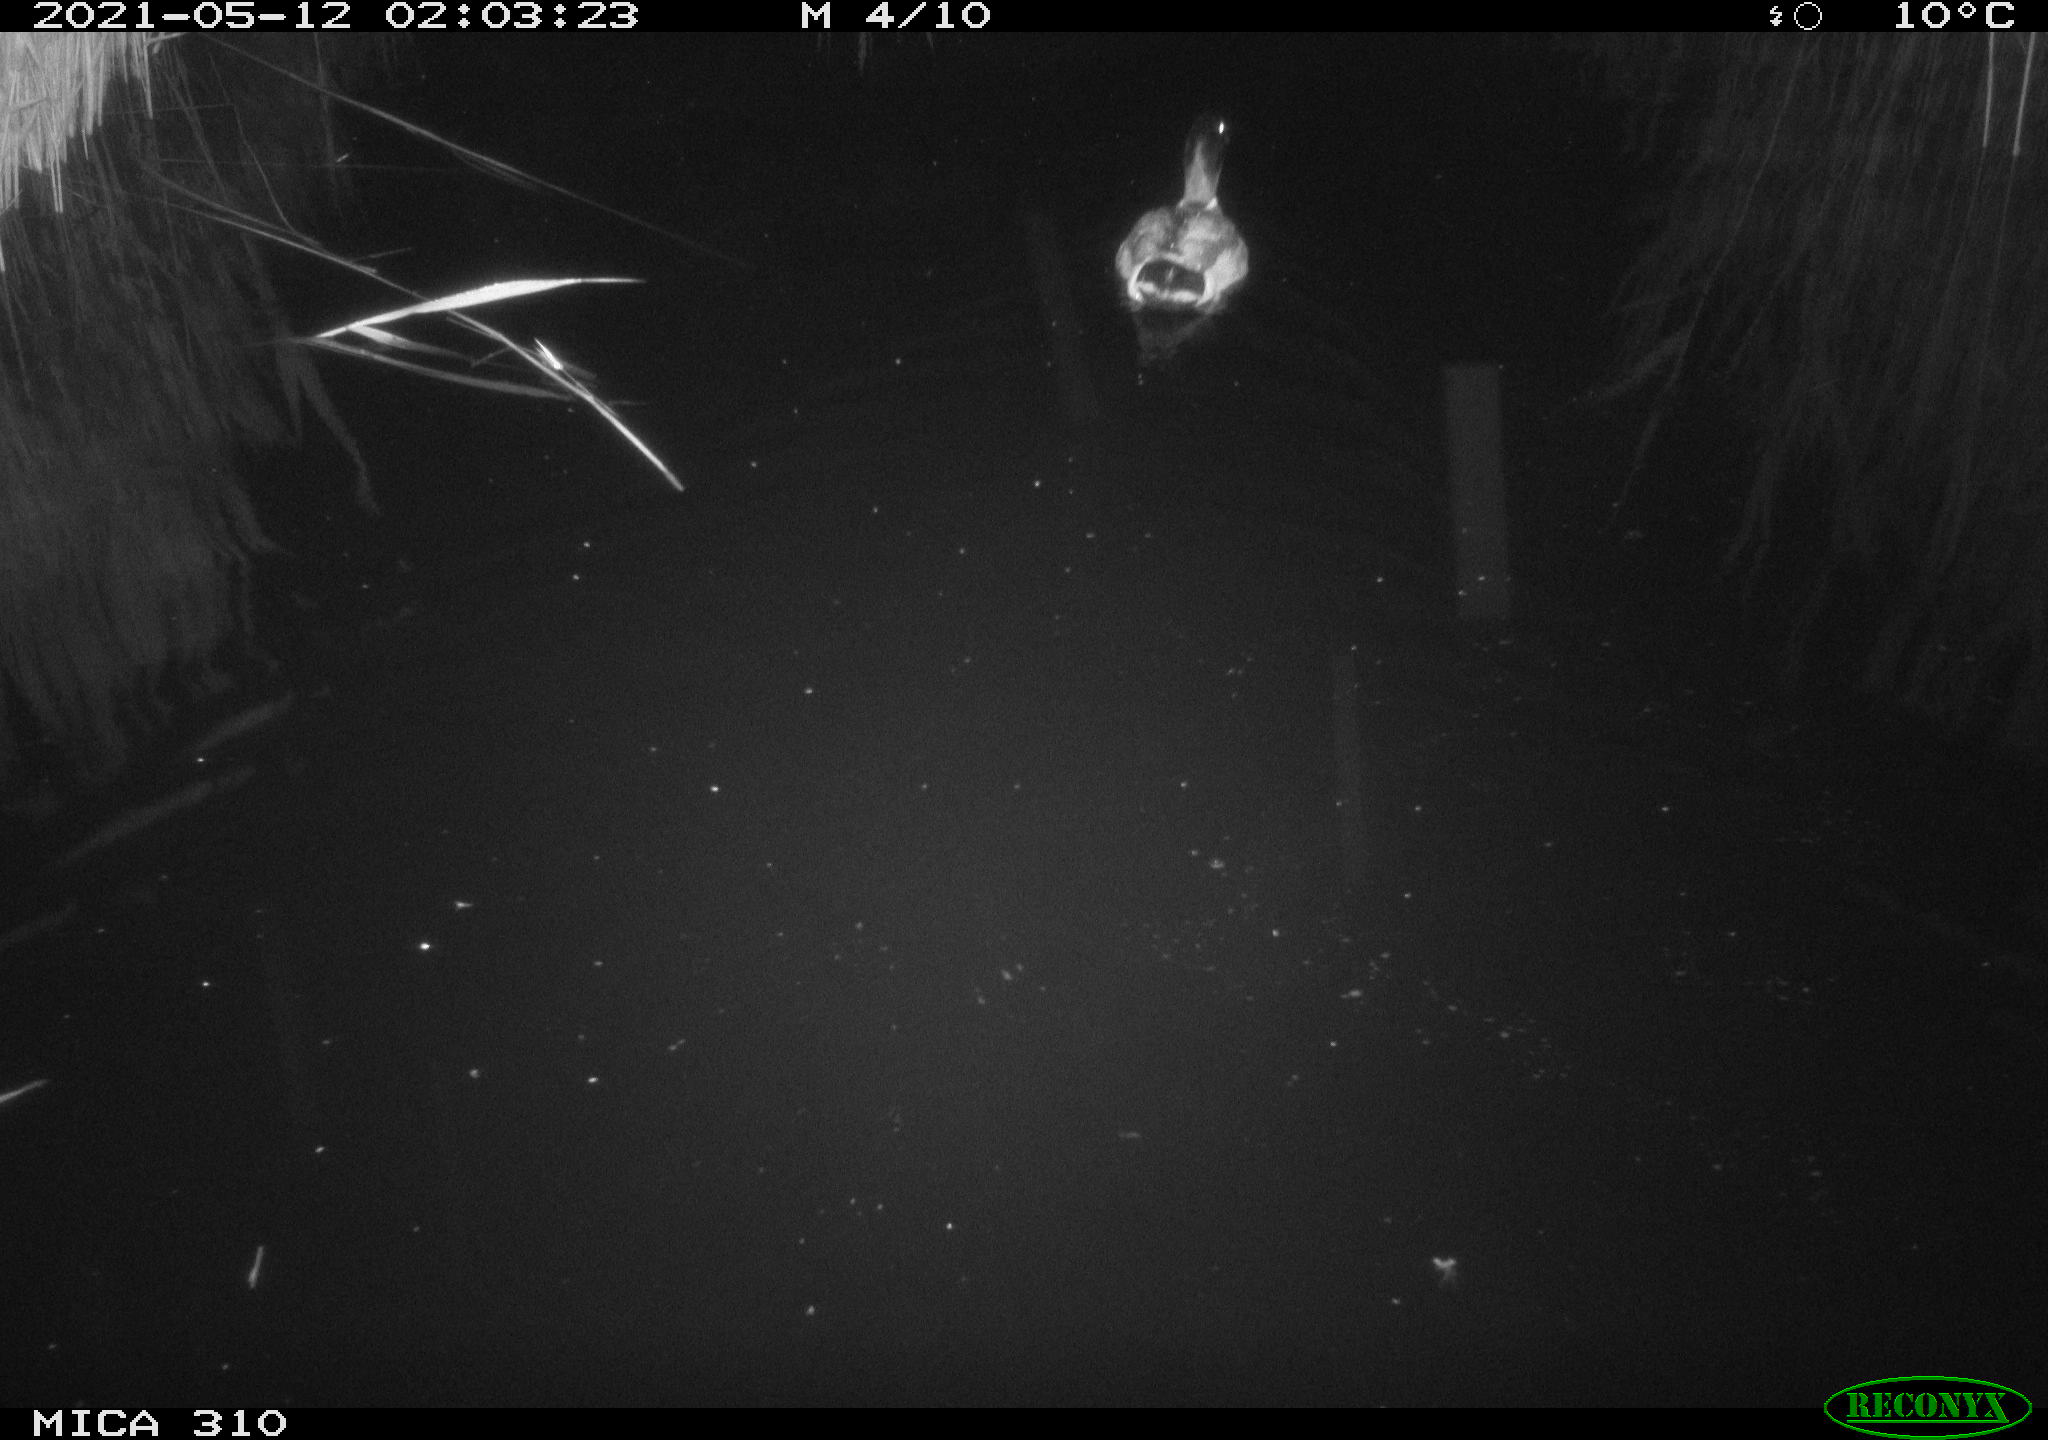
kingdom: Animalia
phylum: Chordata
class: Aves
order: Anseriformes
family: Anatidae
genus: Anas
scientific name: Anas platyrhynchos
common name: Mallard
